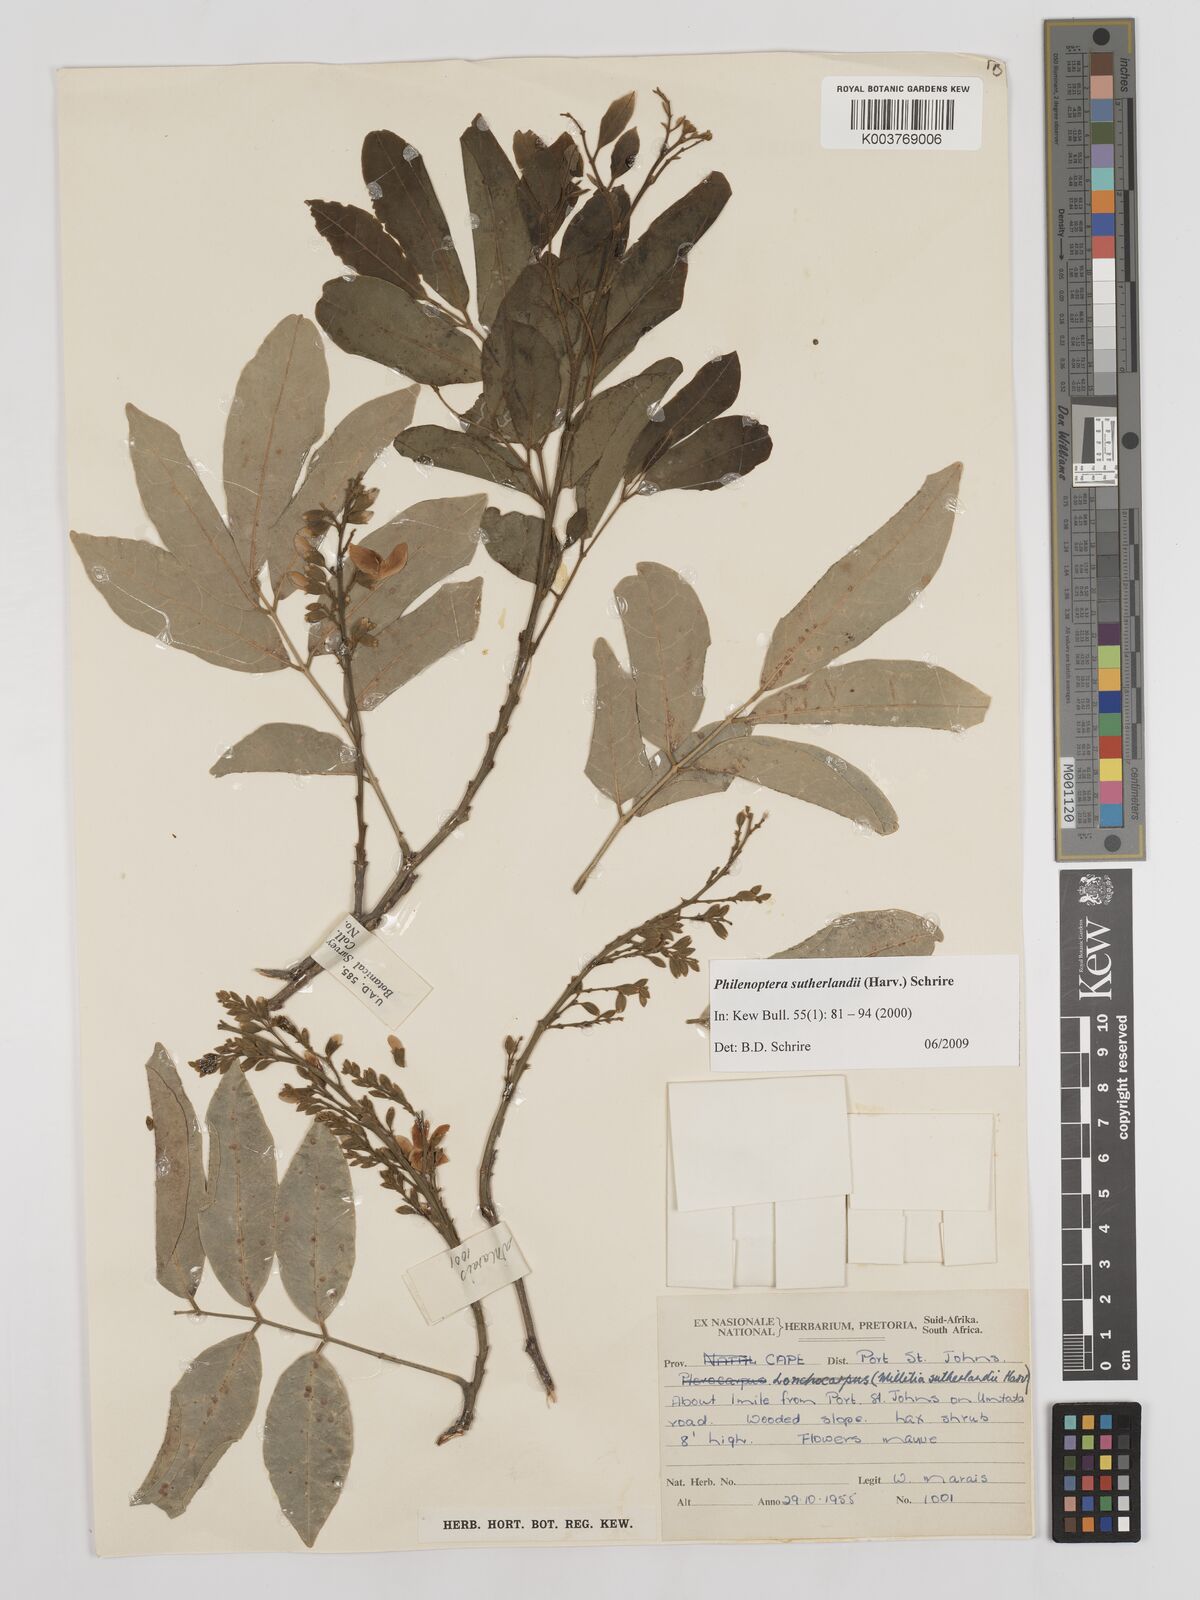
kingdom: Plantae
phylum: Tracheophyta
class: Magnoliopsida
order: Fabales
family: Fabaceae
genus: Philenoptera
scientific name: Philenoptera sutherlandii
